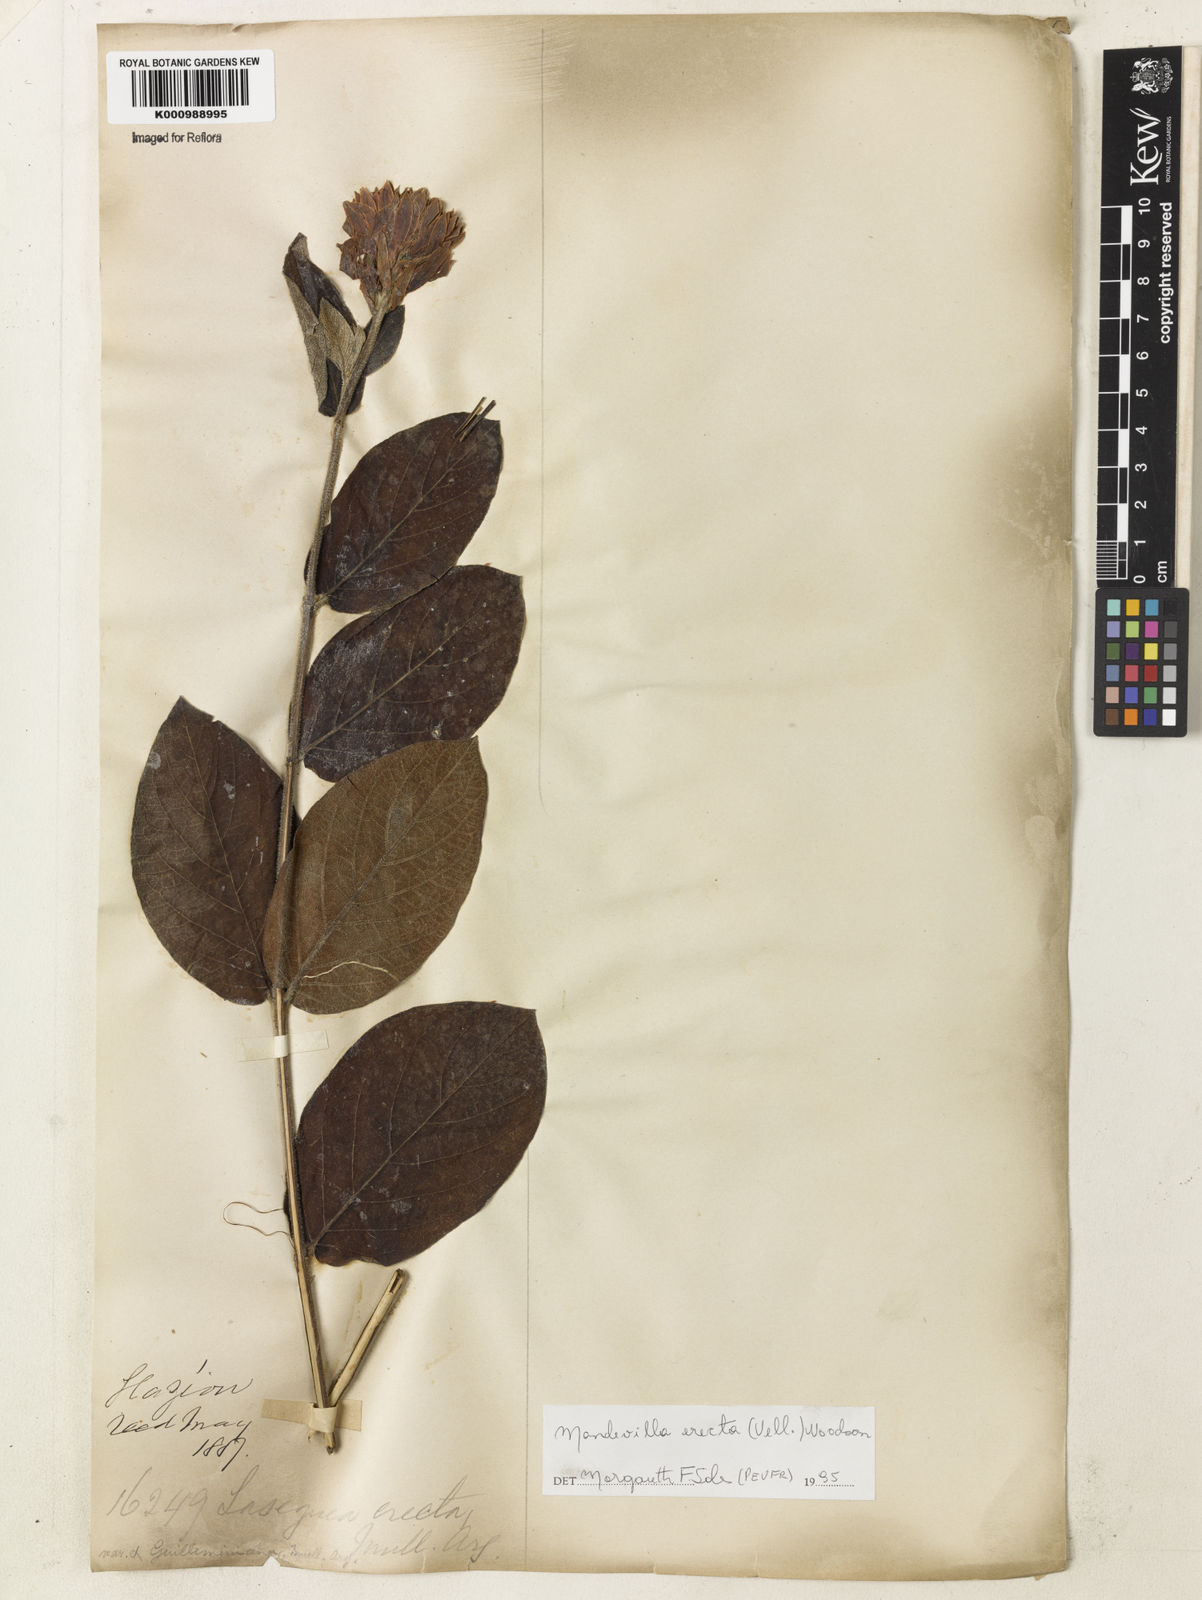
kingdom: Plantae
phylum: Tracheophyta
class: Magnoliopsida
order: Gentianales
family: Apocynaceae
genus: Mandevilla
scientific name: Mandevilla emarginata
